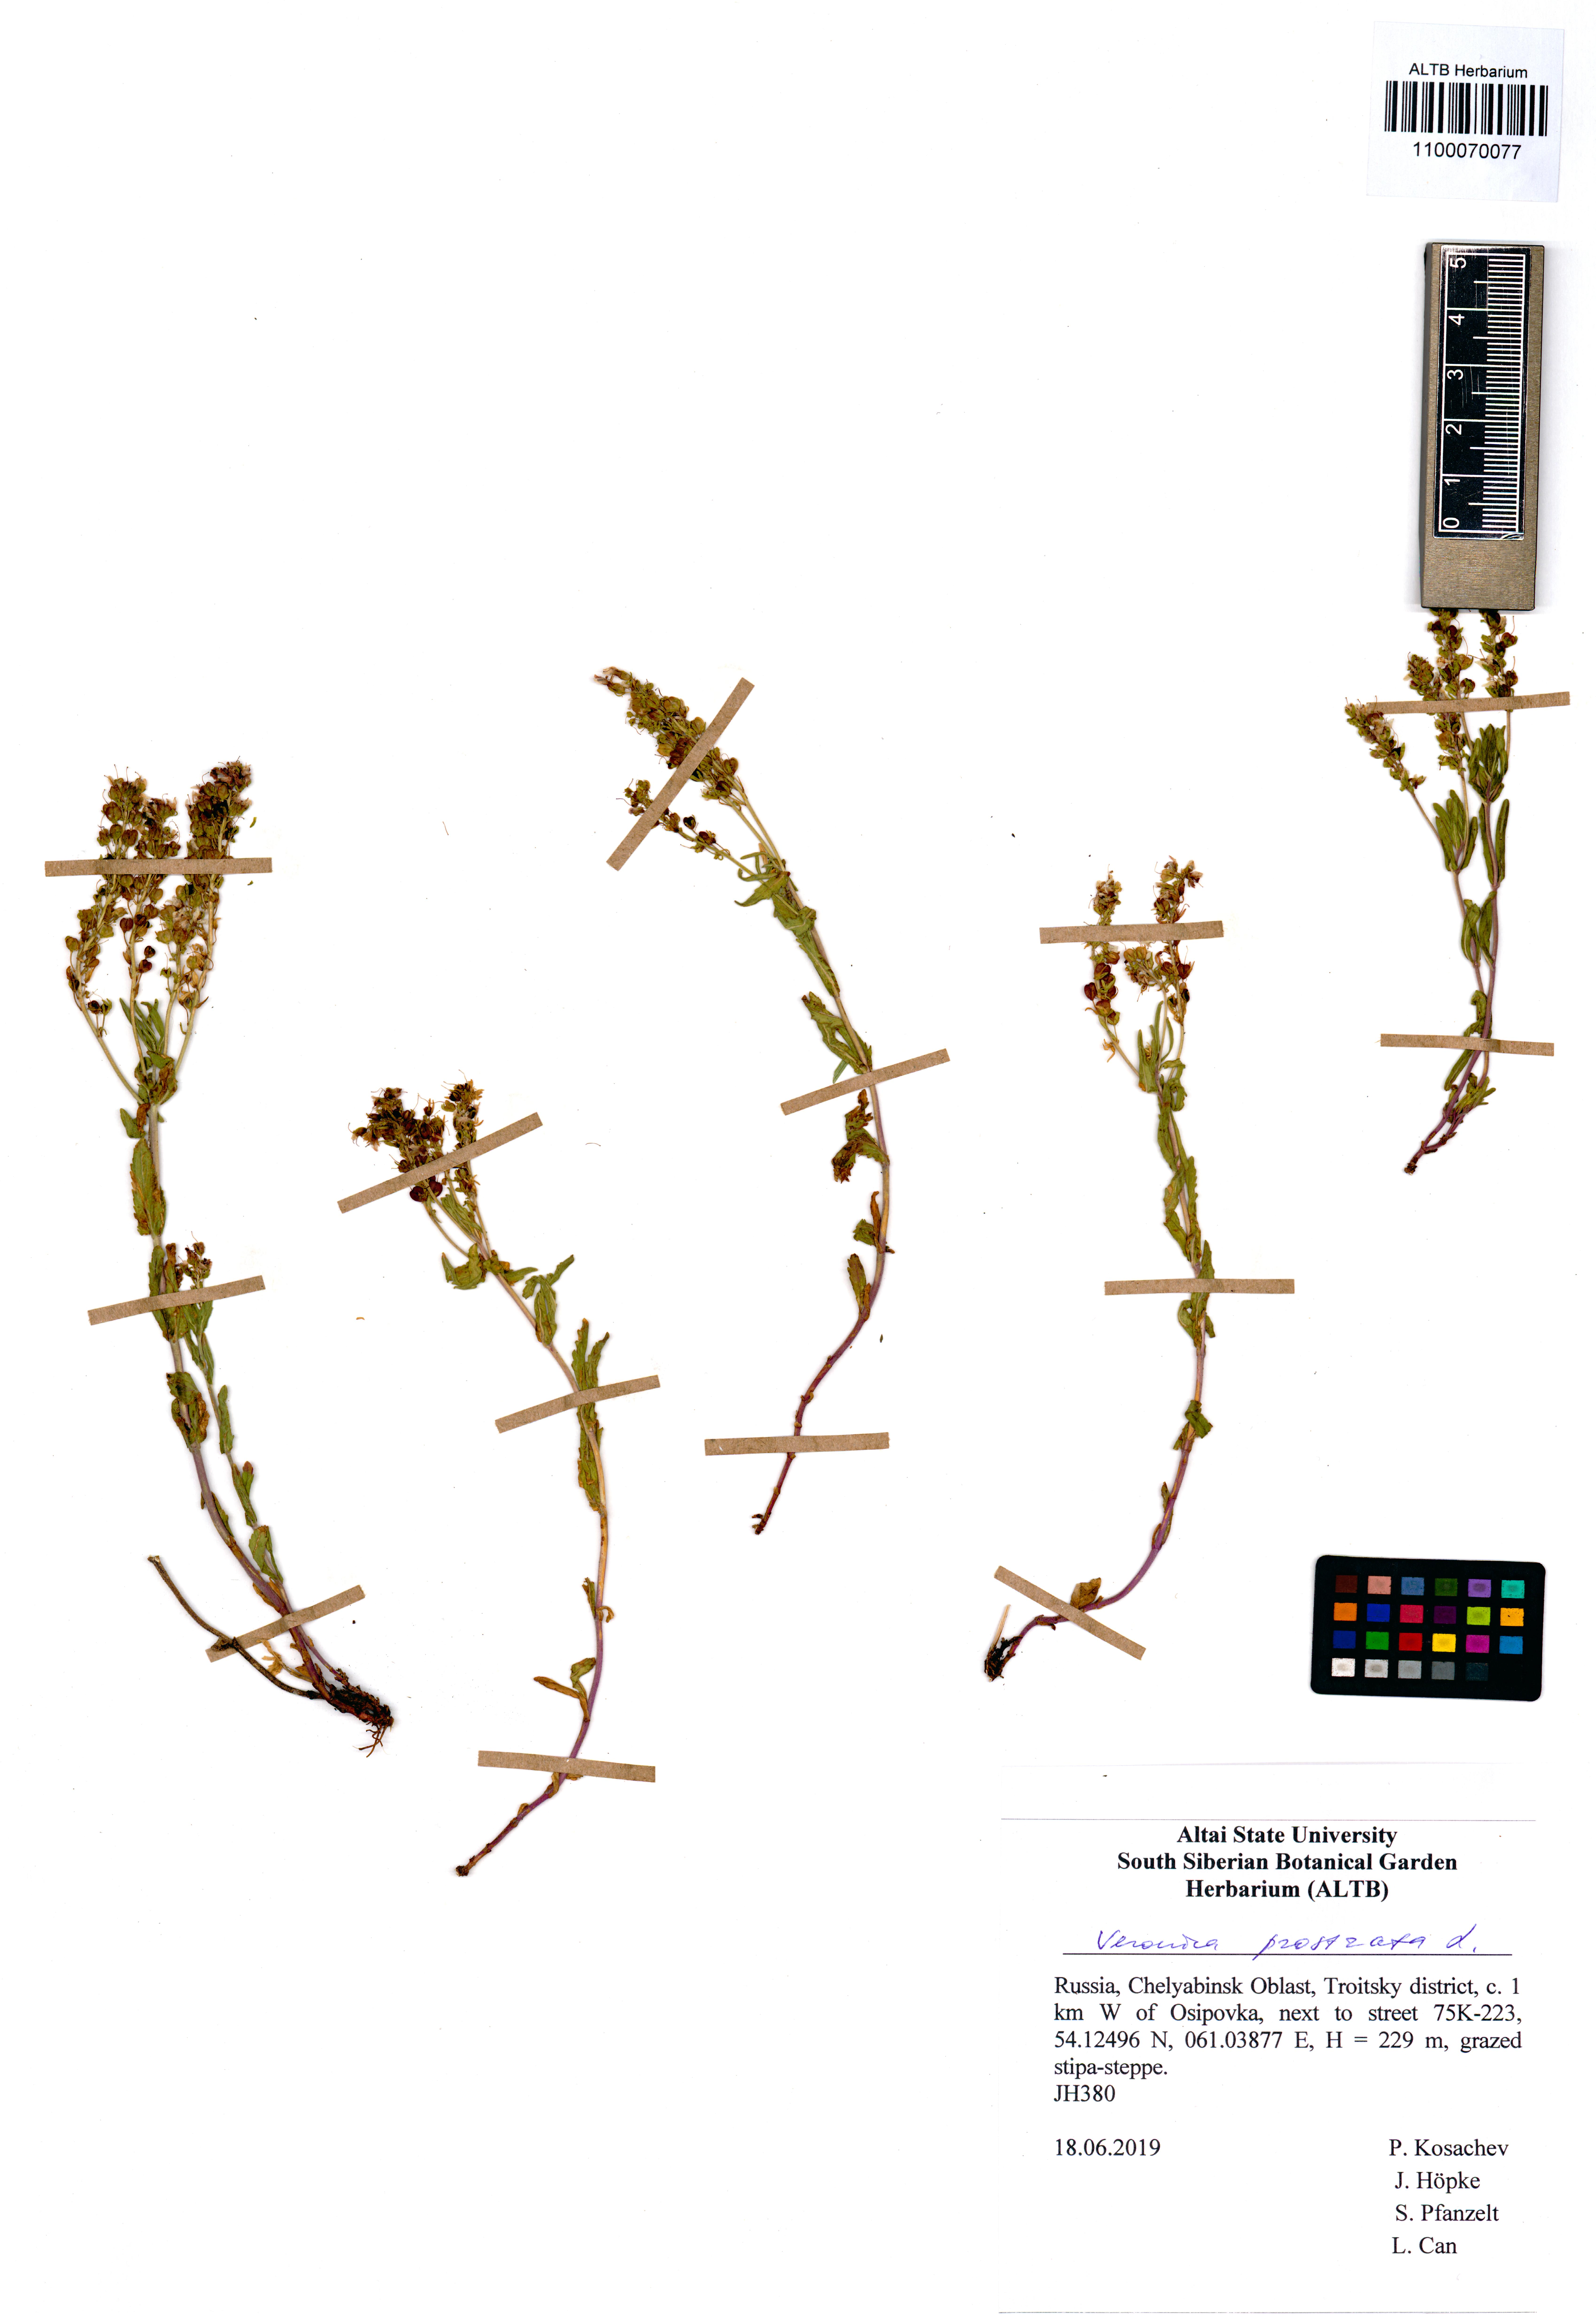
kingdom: Plantae
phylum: Tracheophyta
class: Magnoliopsida
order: Lamiales
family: Plantaginaceae
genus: Veronica
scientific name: Veronica prostrata
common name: Prostrate speedwell
